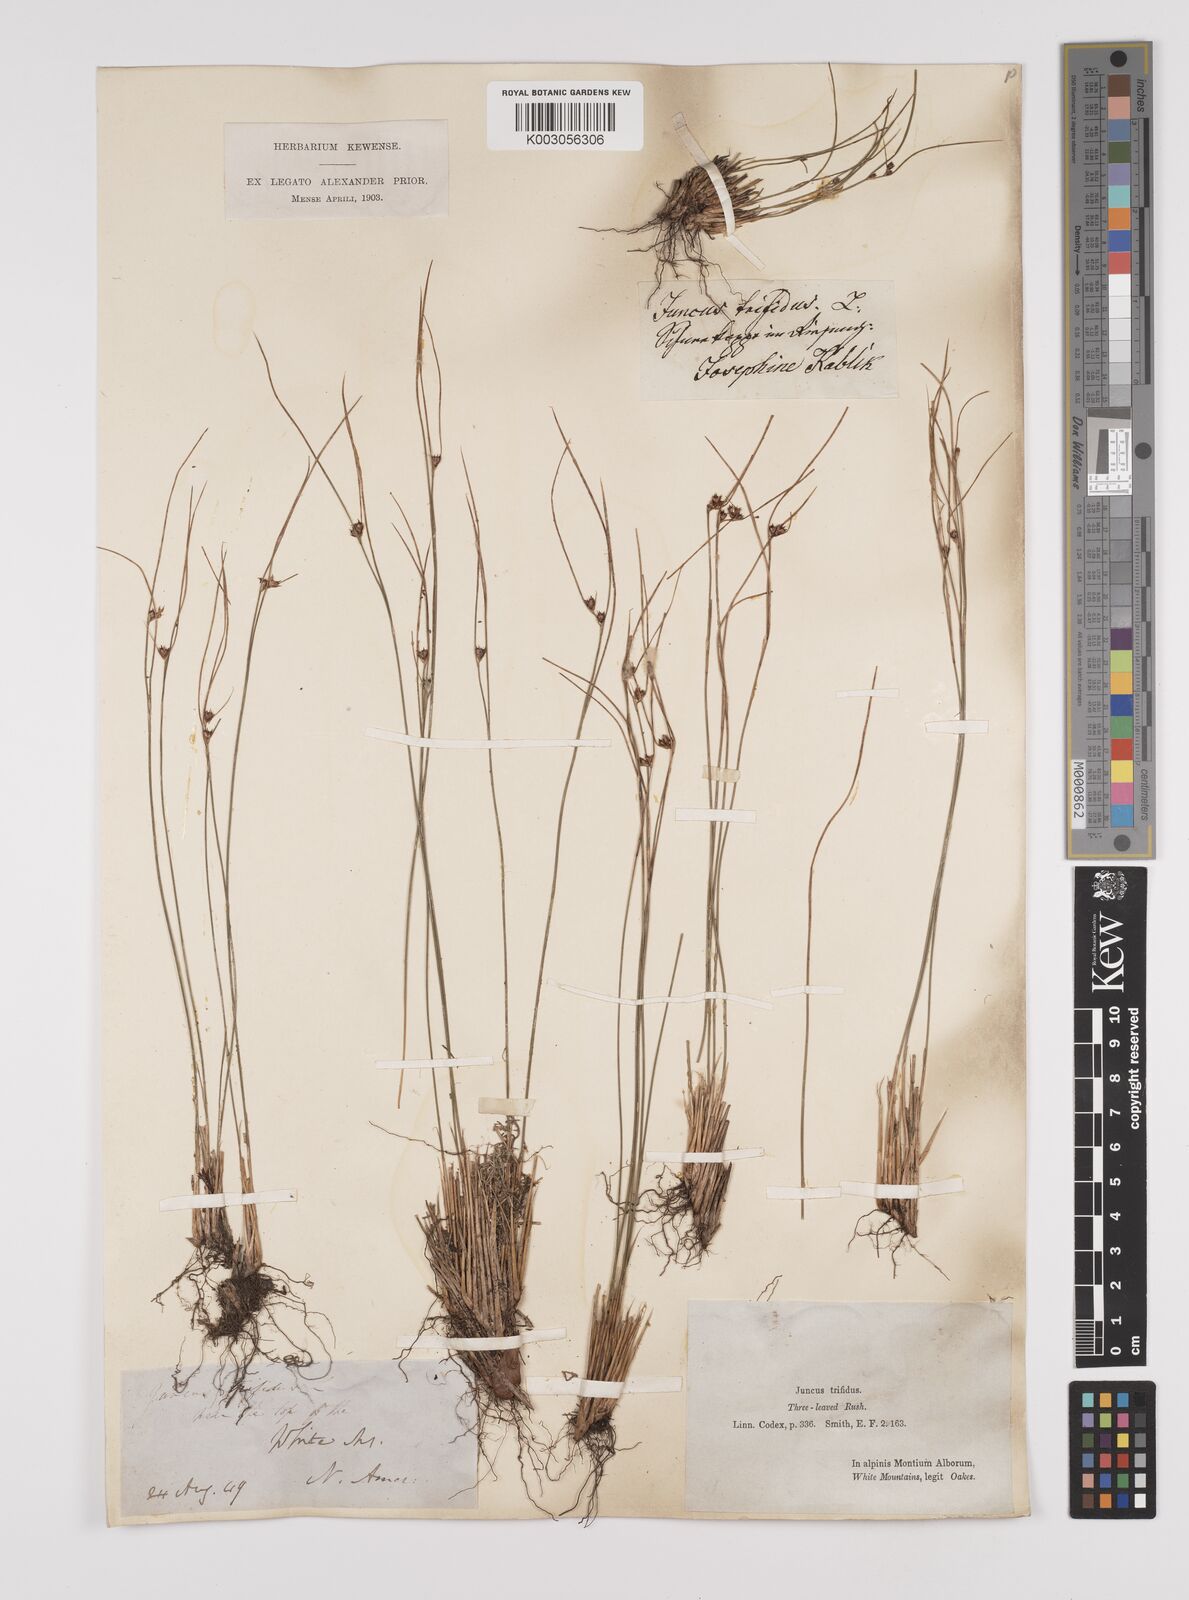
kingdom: Plantae
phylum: Tracheophyta
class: Liliopsida
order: Poales
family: Juncaceae
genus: Oreojuncus
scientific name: Oreojuncus trifidus
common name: Highland rush
